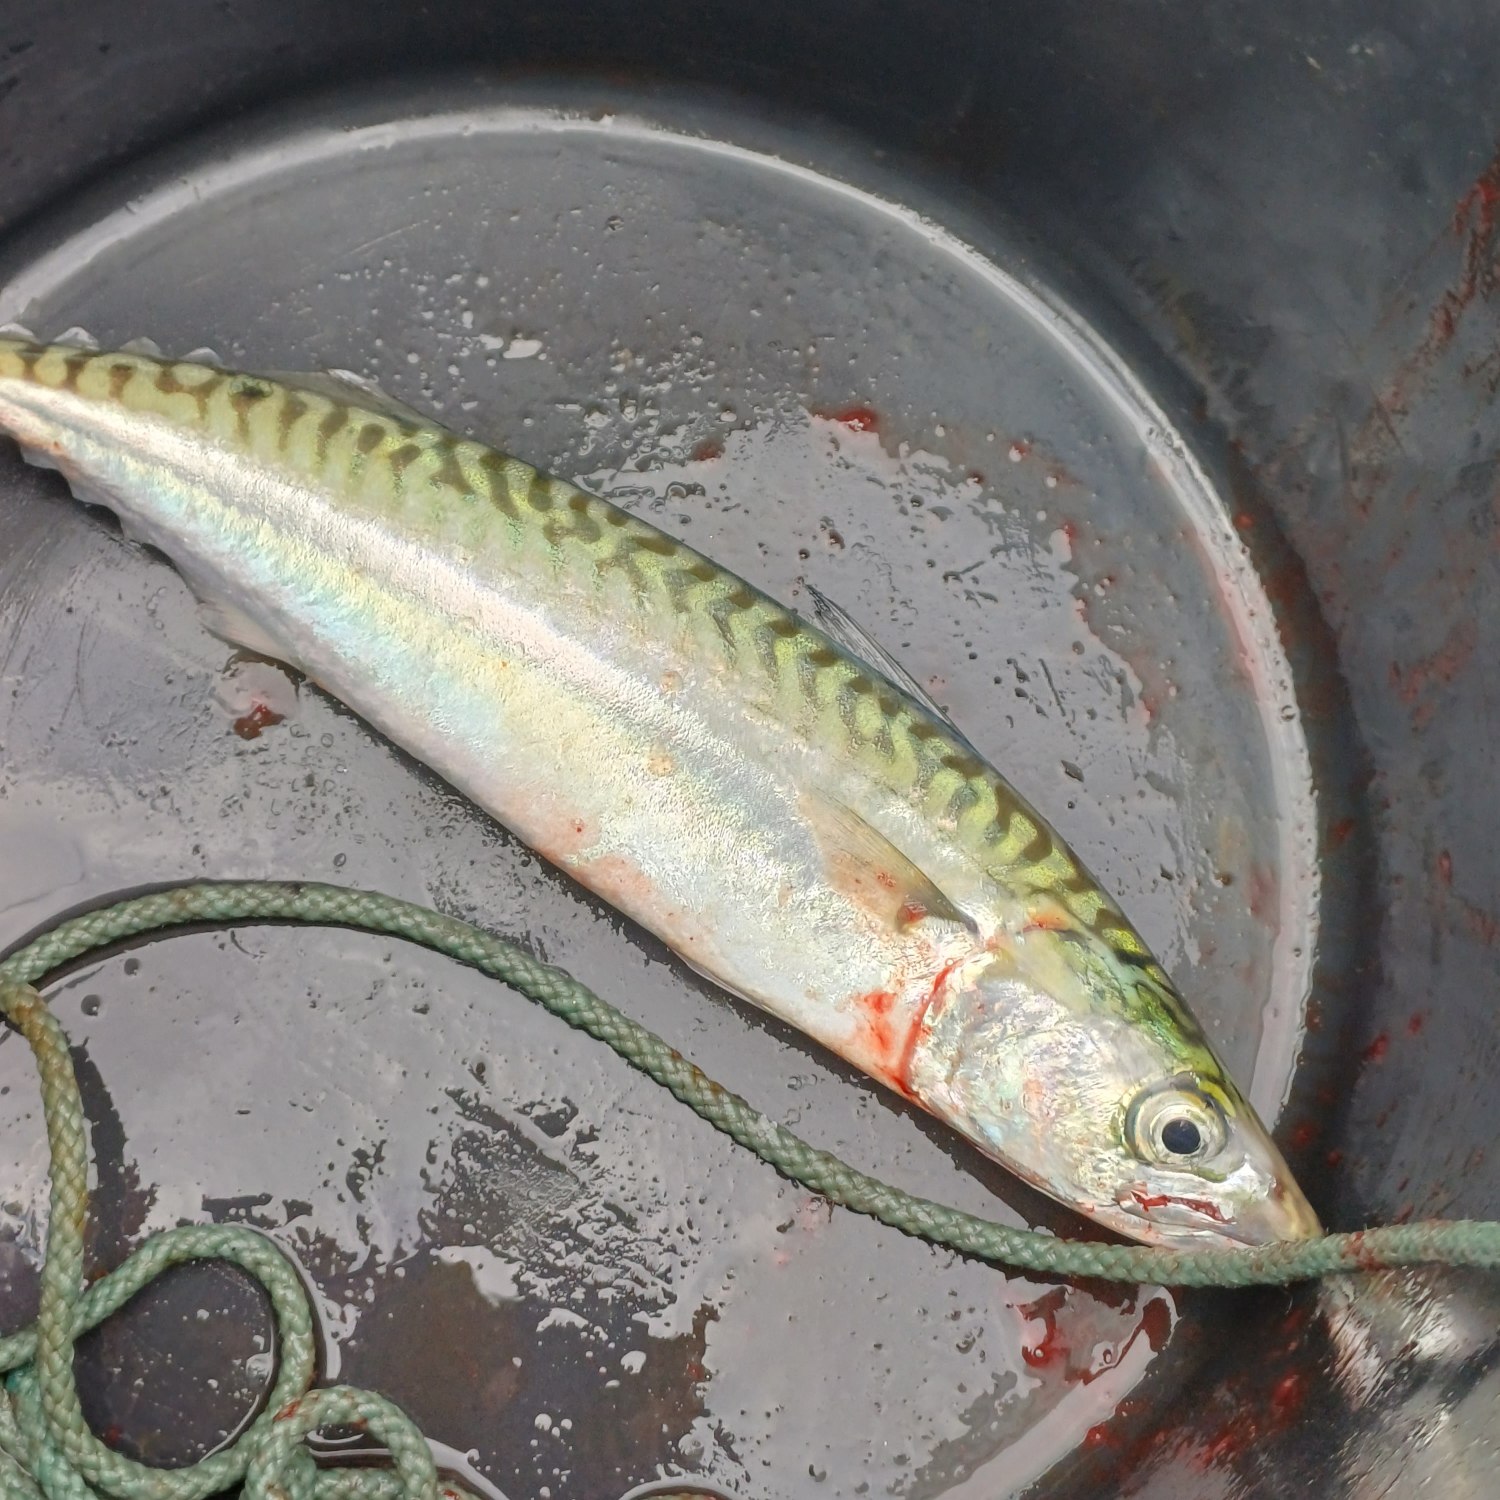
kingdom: Animalia
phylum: Chordata
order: Perciformes
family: Scombridae
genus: Scomber
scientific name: Scomber scombrus
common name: Makrel
